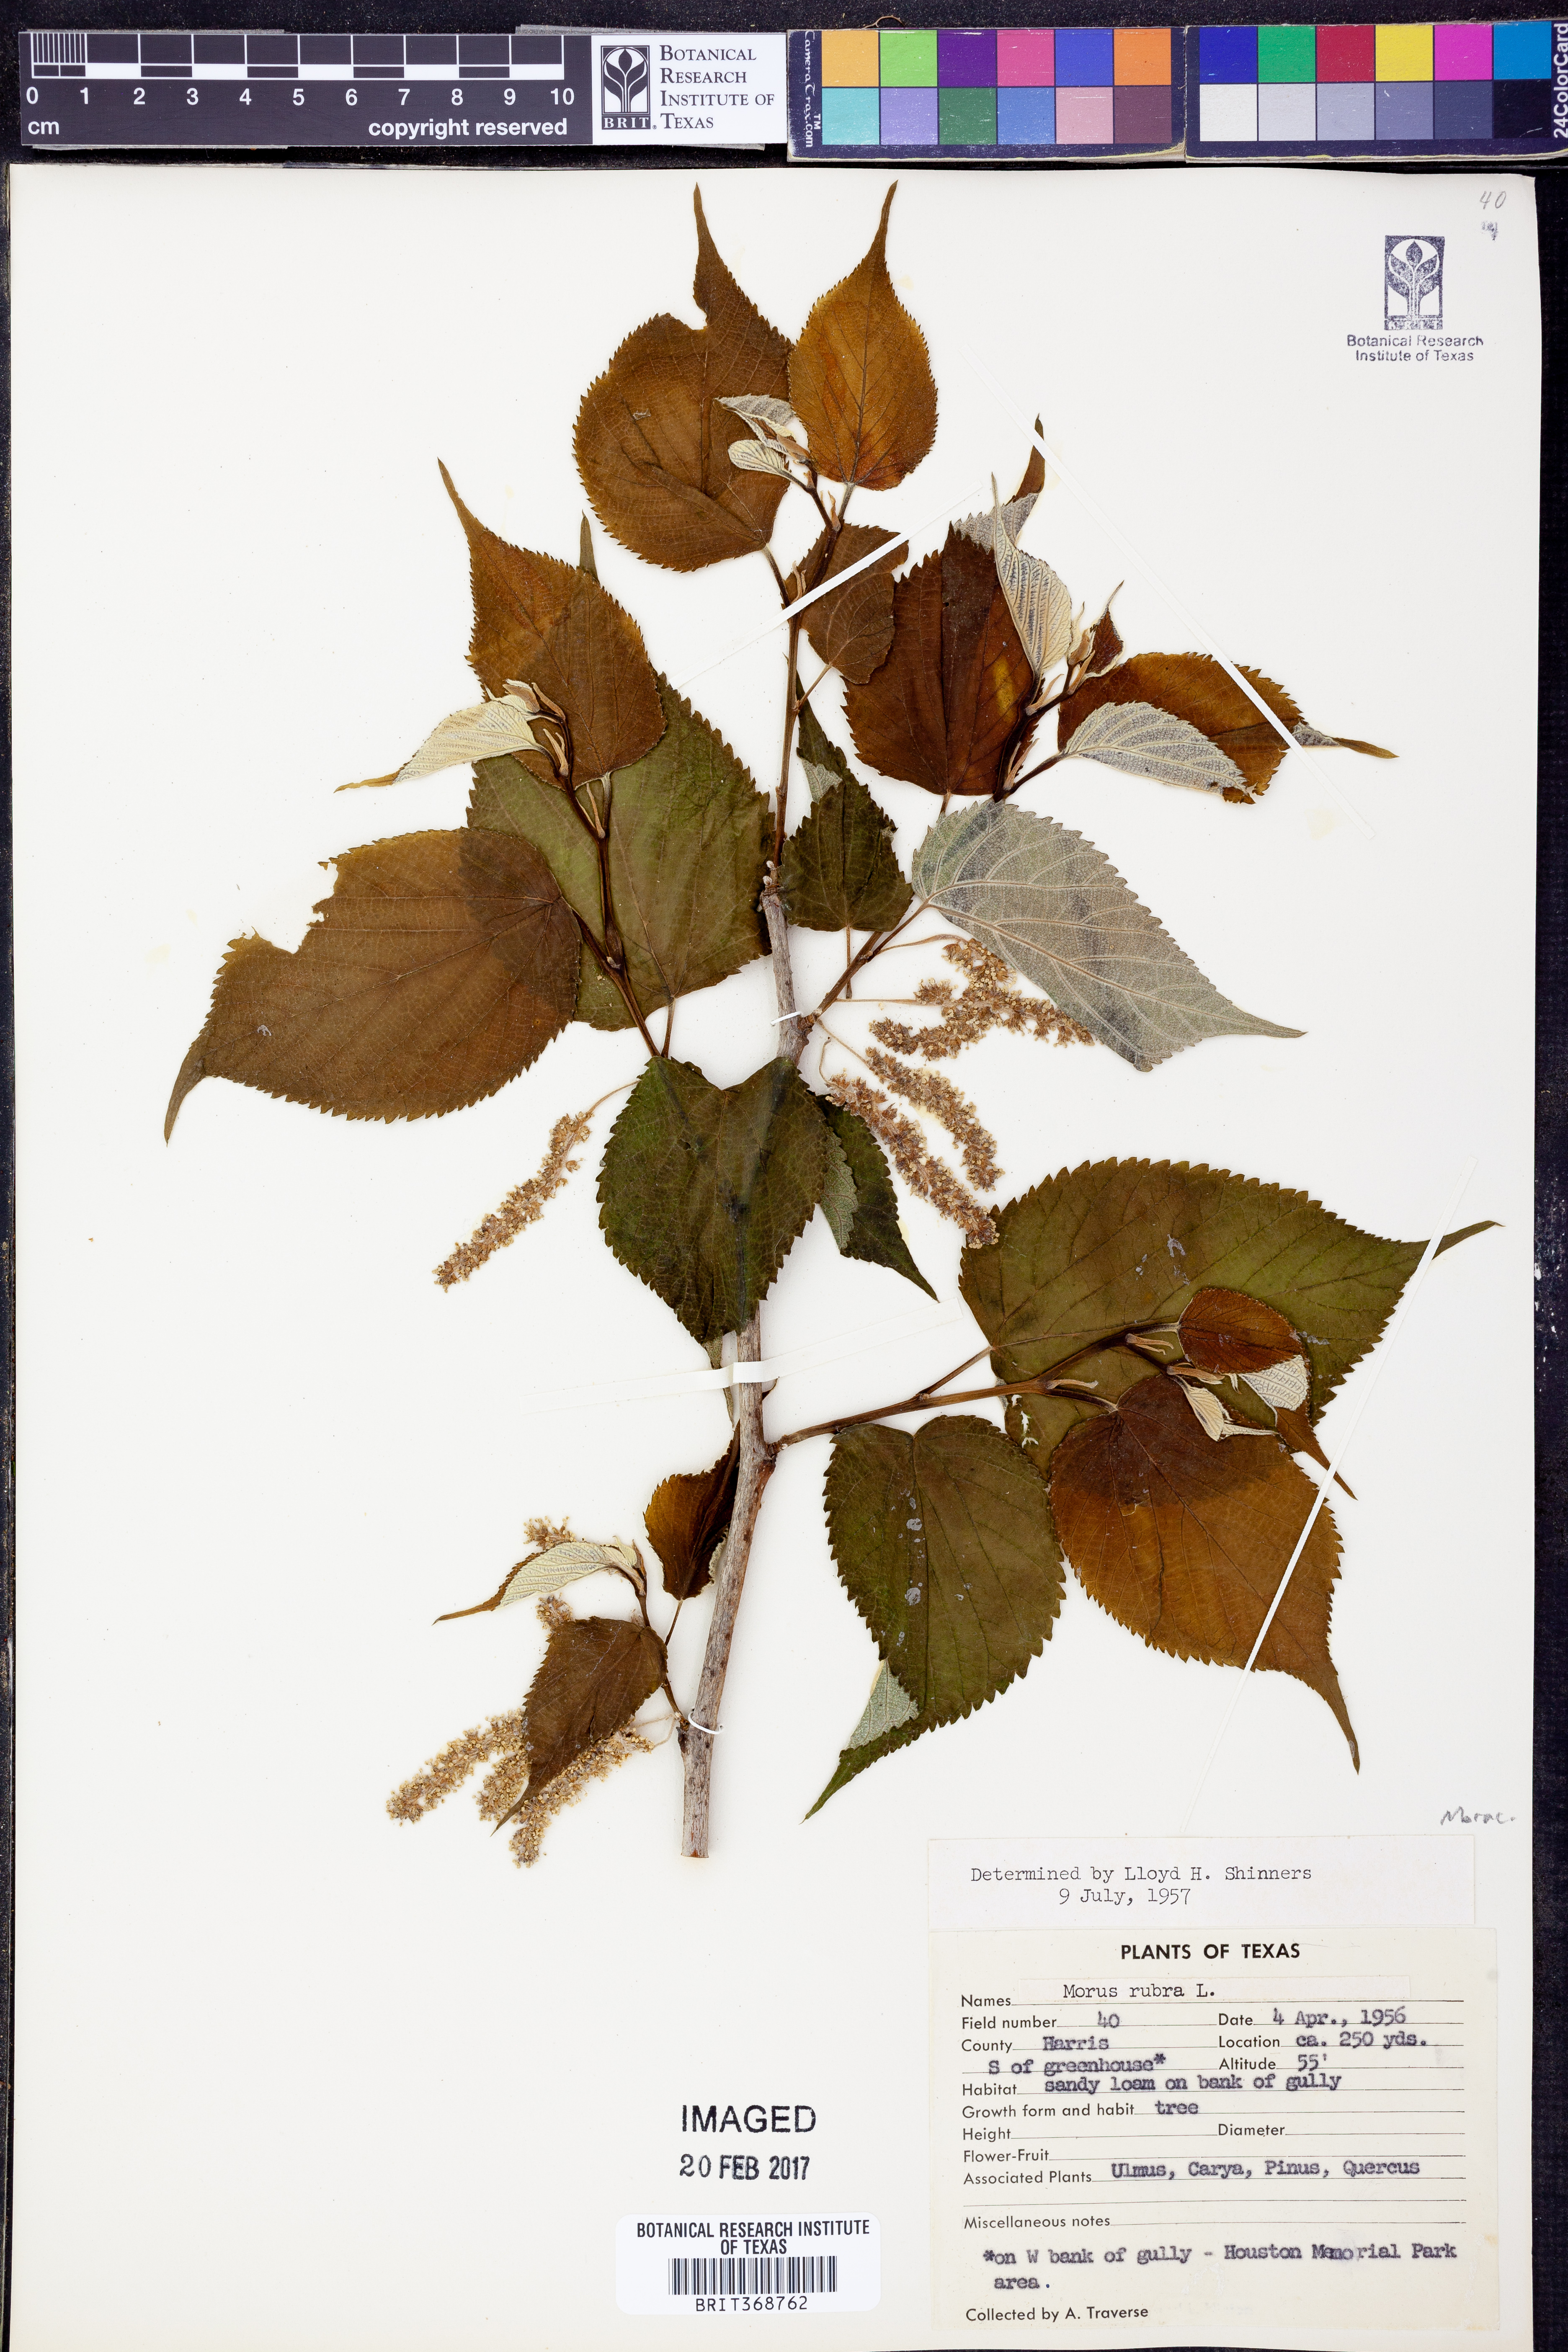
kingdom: Plantae
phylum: Tracheophyta
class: Magnoliopsida
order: Rosales
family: Moraceae
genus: Morus
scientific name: Morus rubra
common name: Red mulberry
